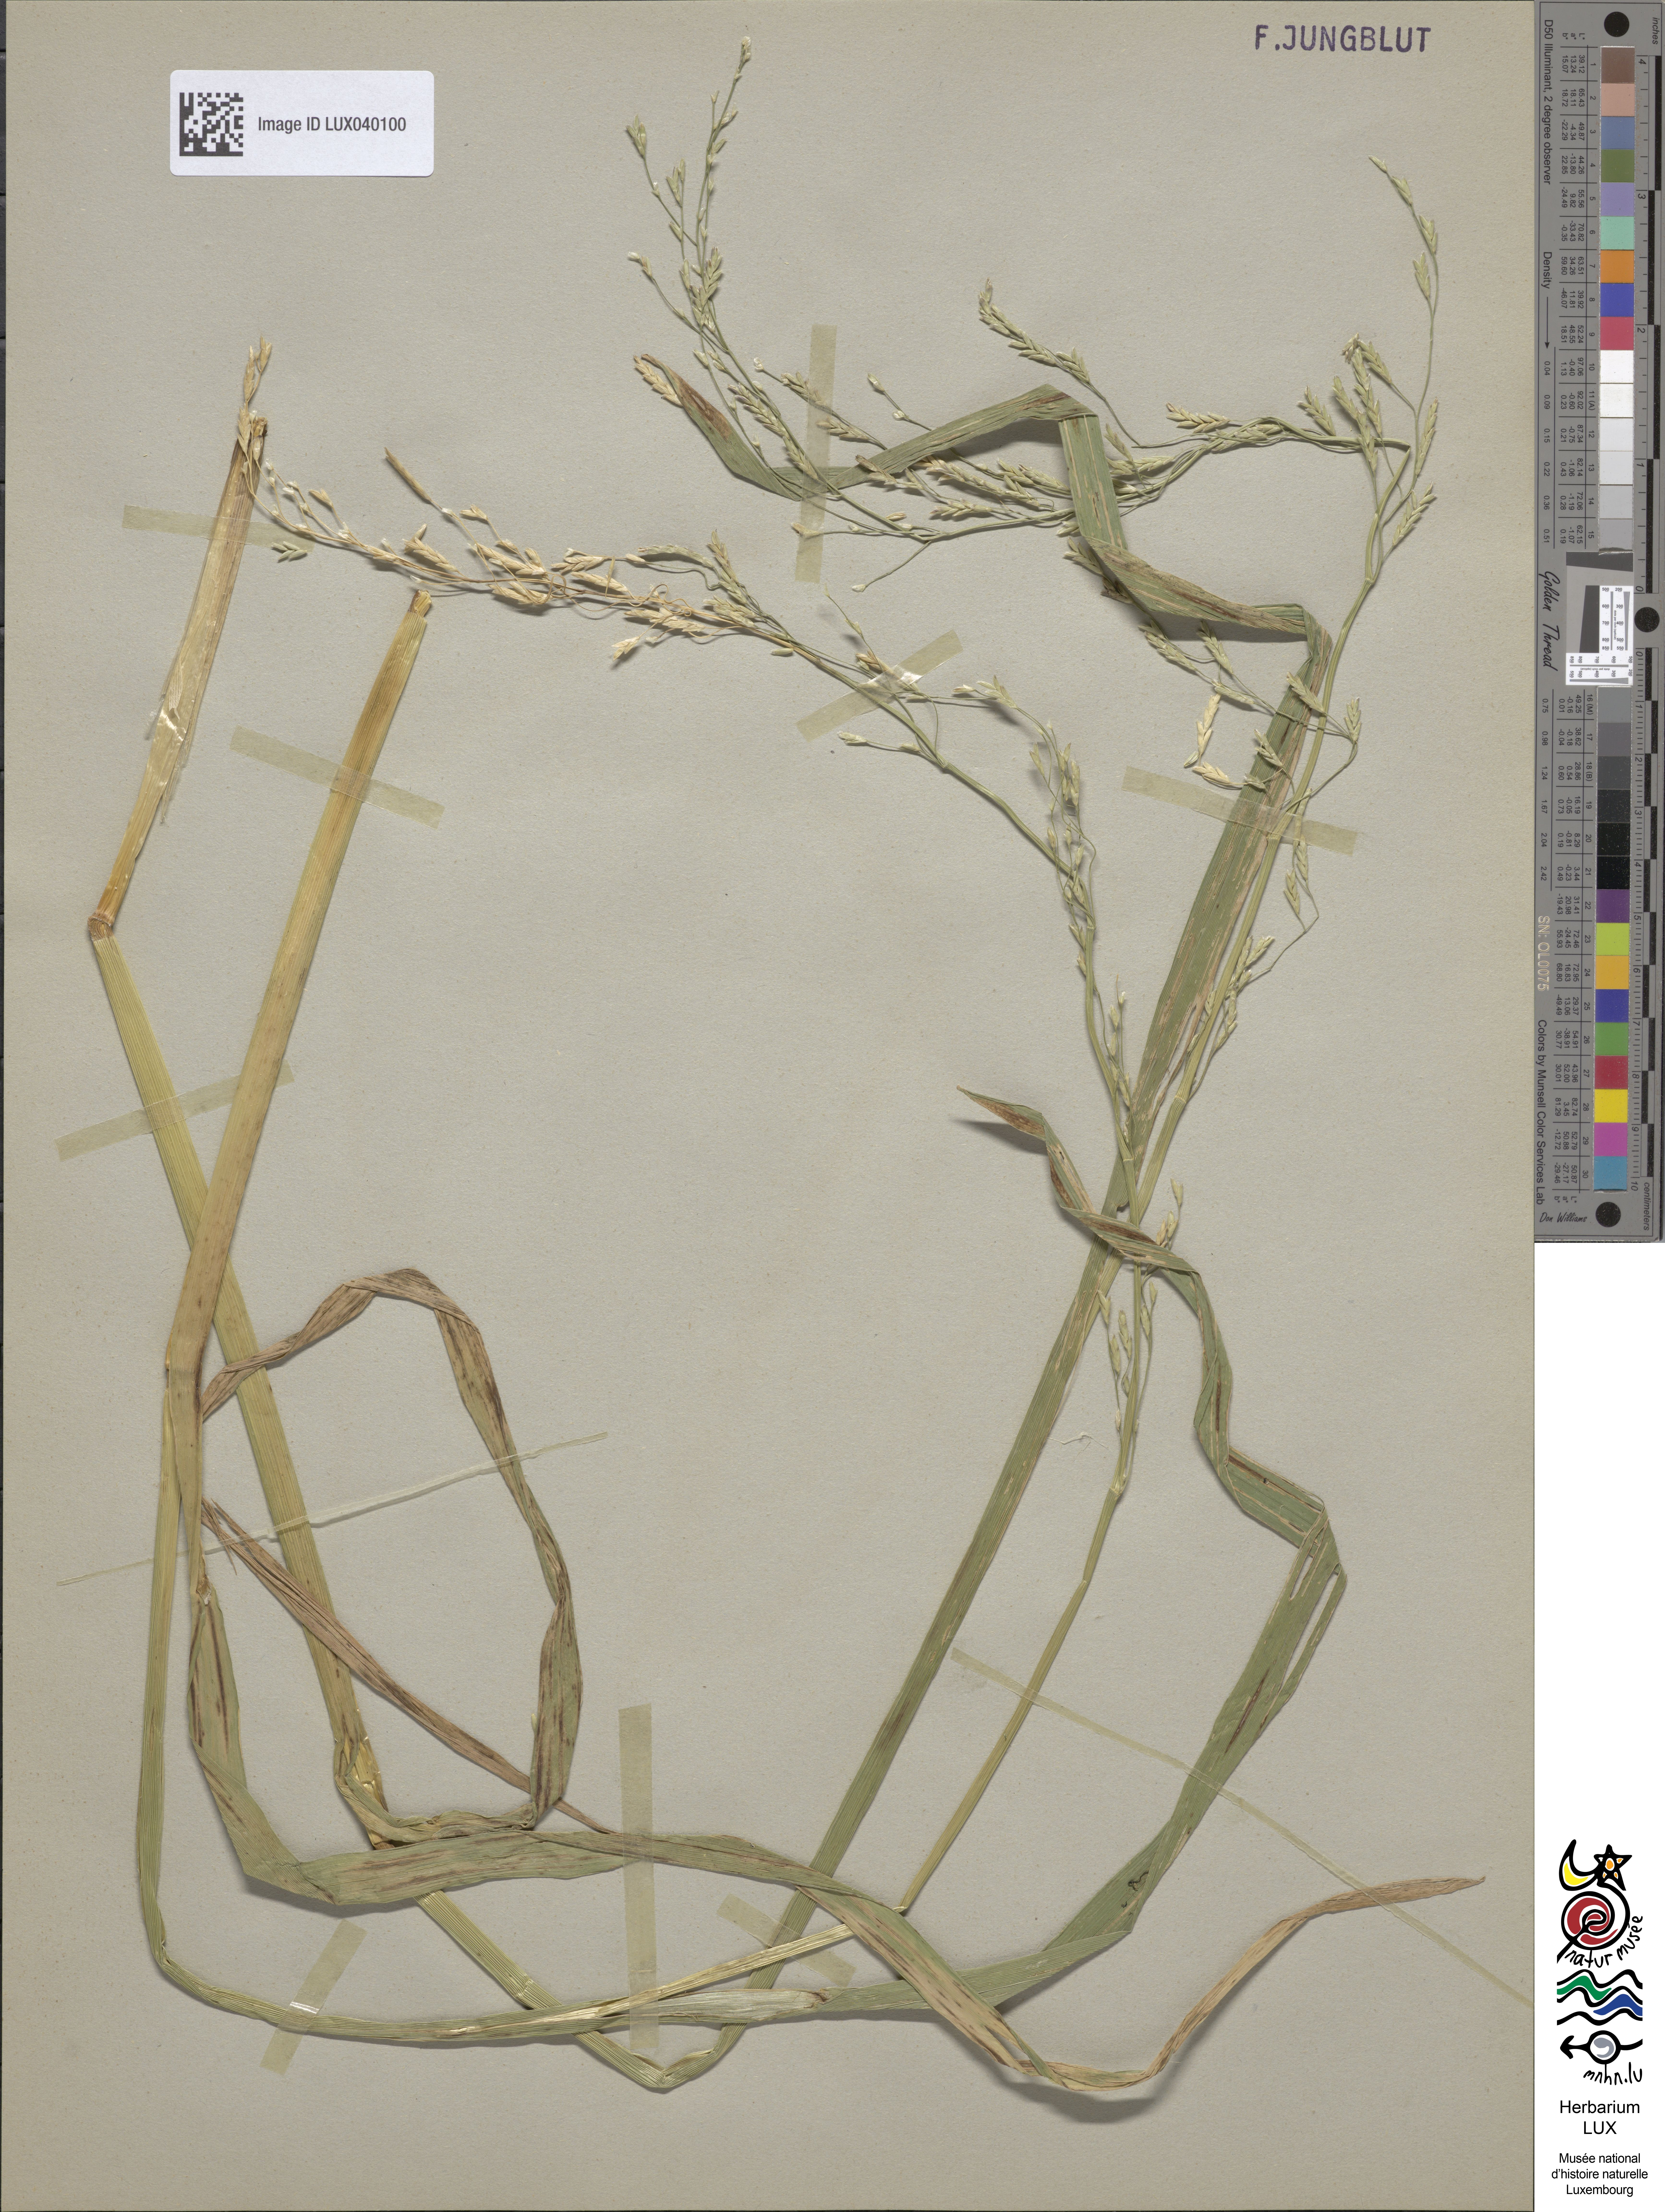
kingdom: Plantae
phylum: Tracheophyta
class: Liliopsida
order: Poales
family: Poaceae
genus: Glyceria
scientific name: Glyceria pedicellata
